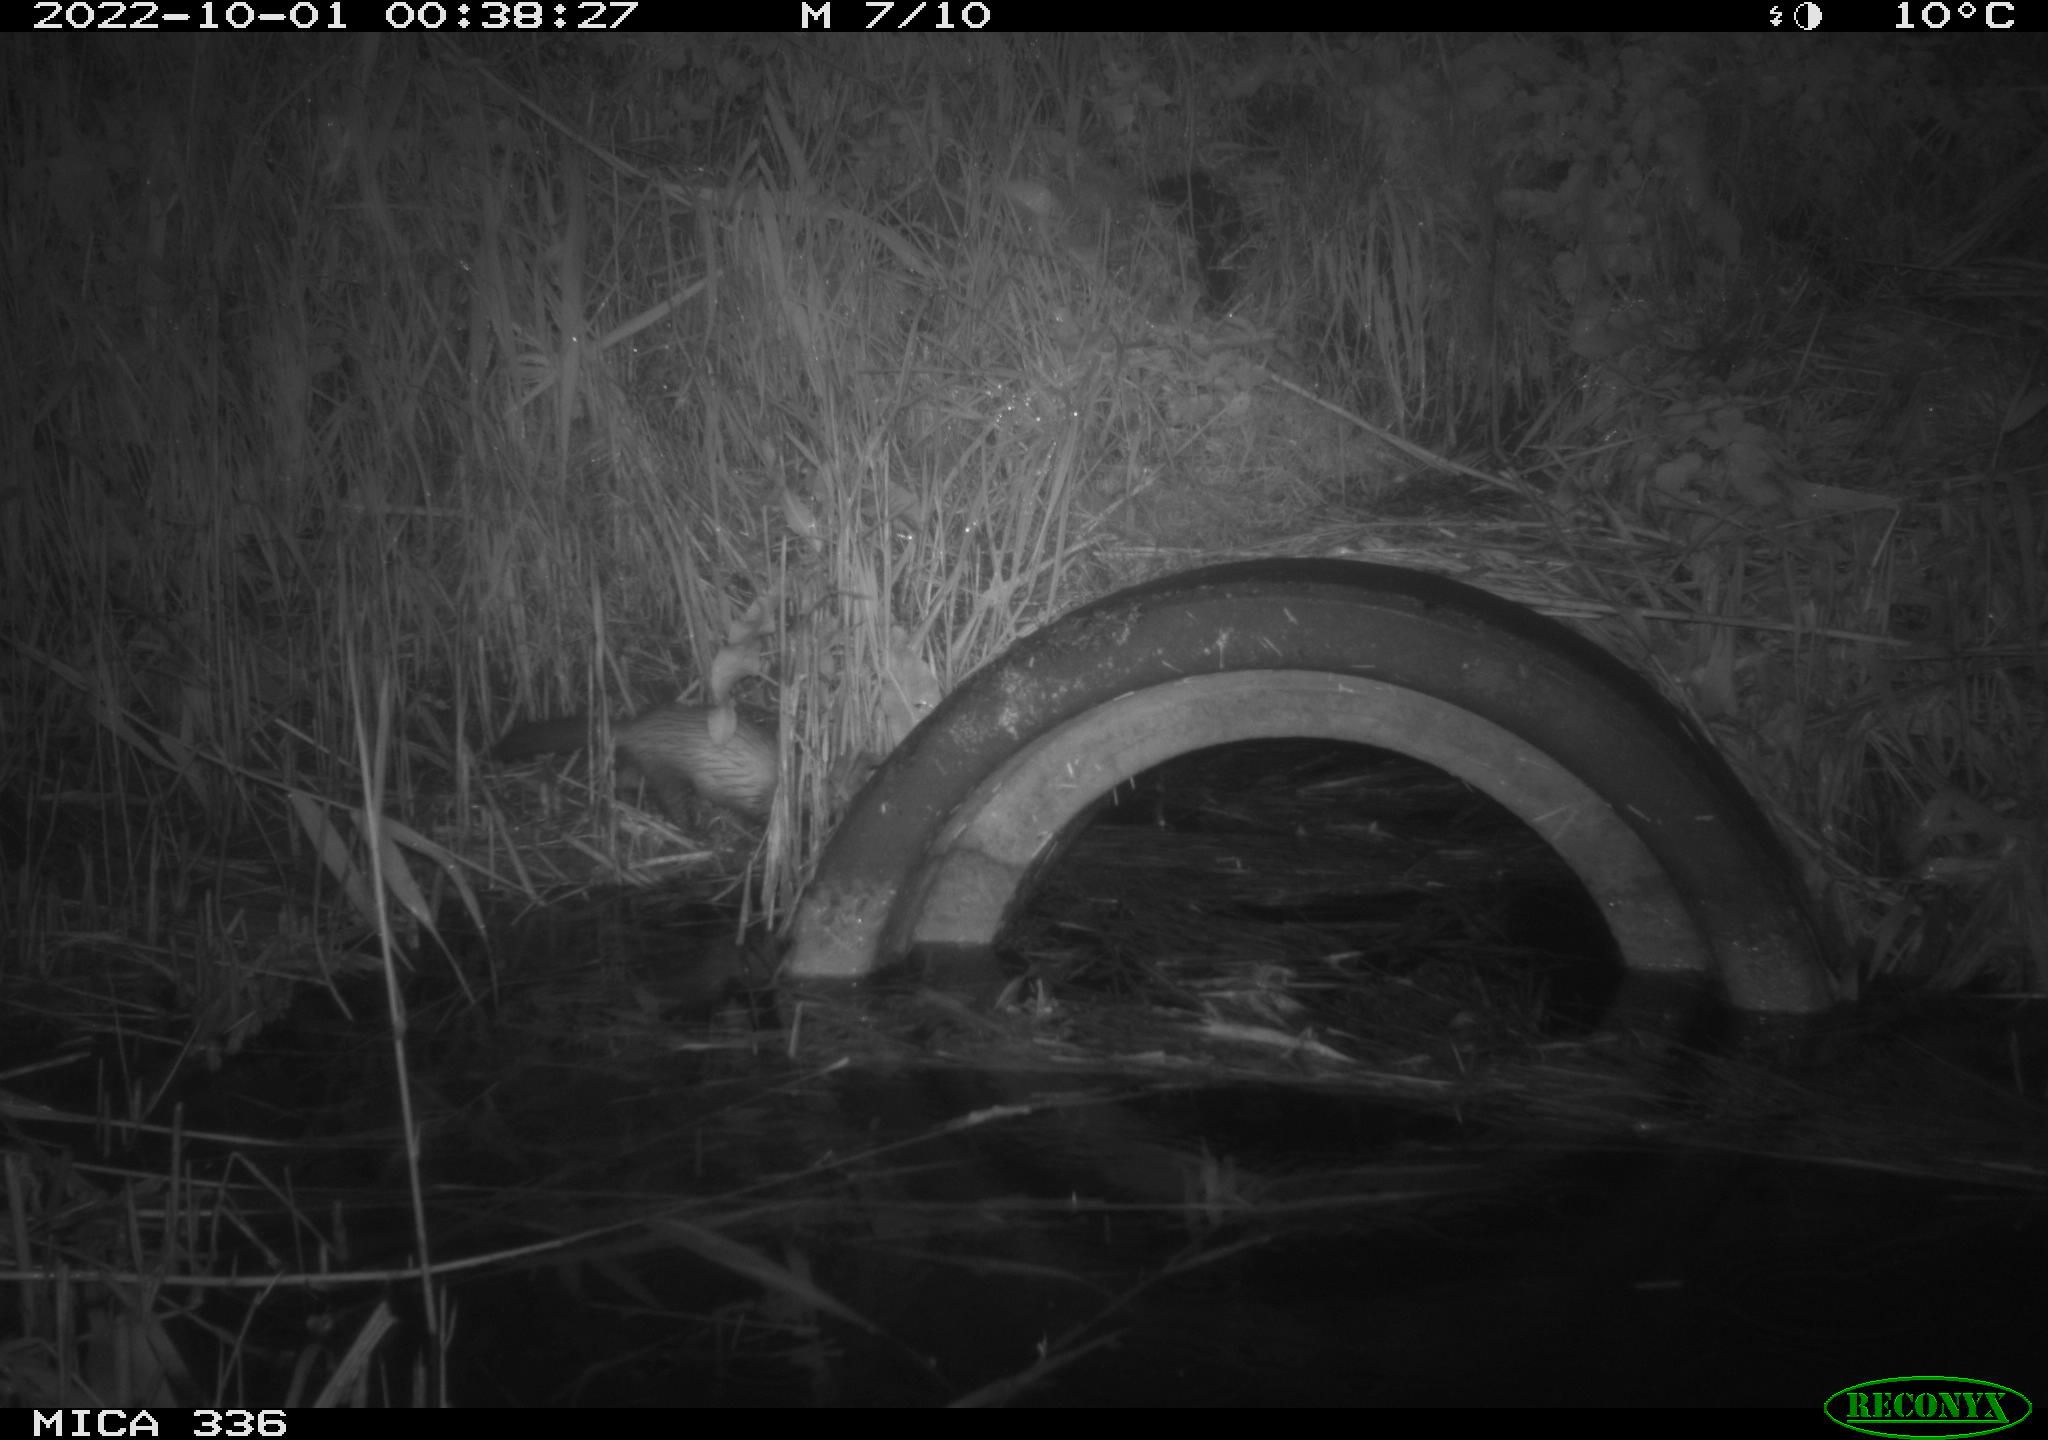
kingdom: Animalia
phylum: Chordata
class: Mammalia
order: Carnivora
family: Mustelidae
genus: Mustela
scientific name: Mustela putorius
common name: European polecat
